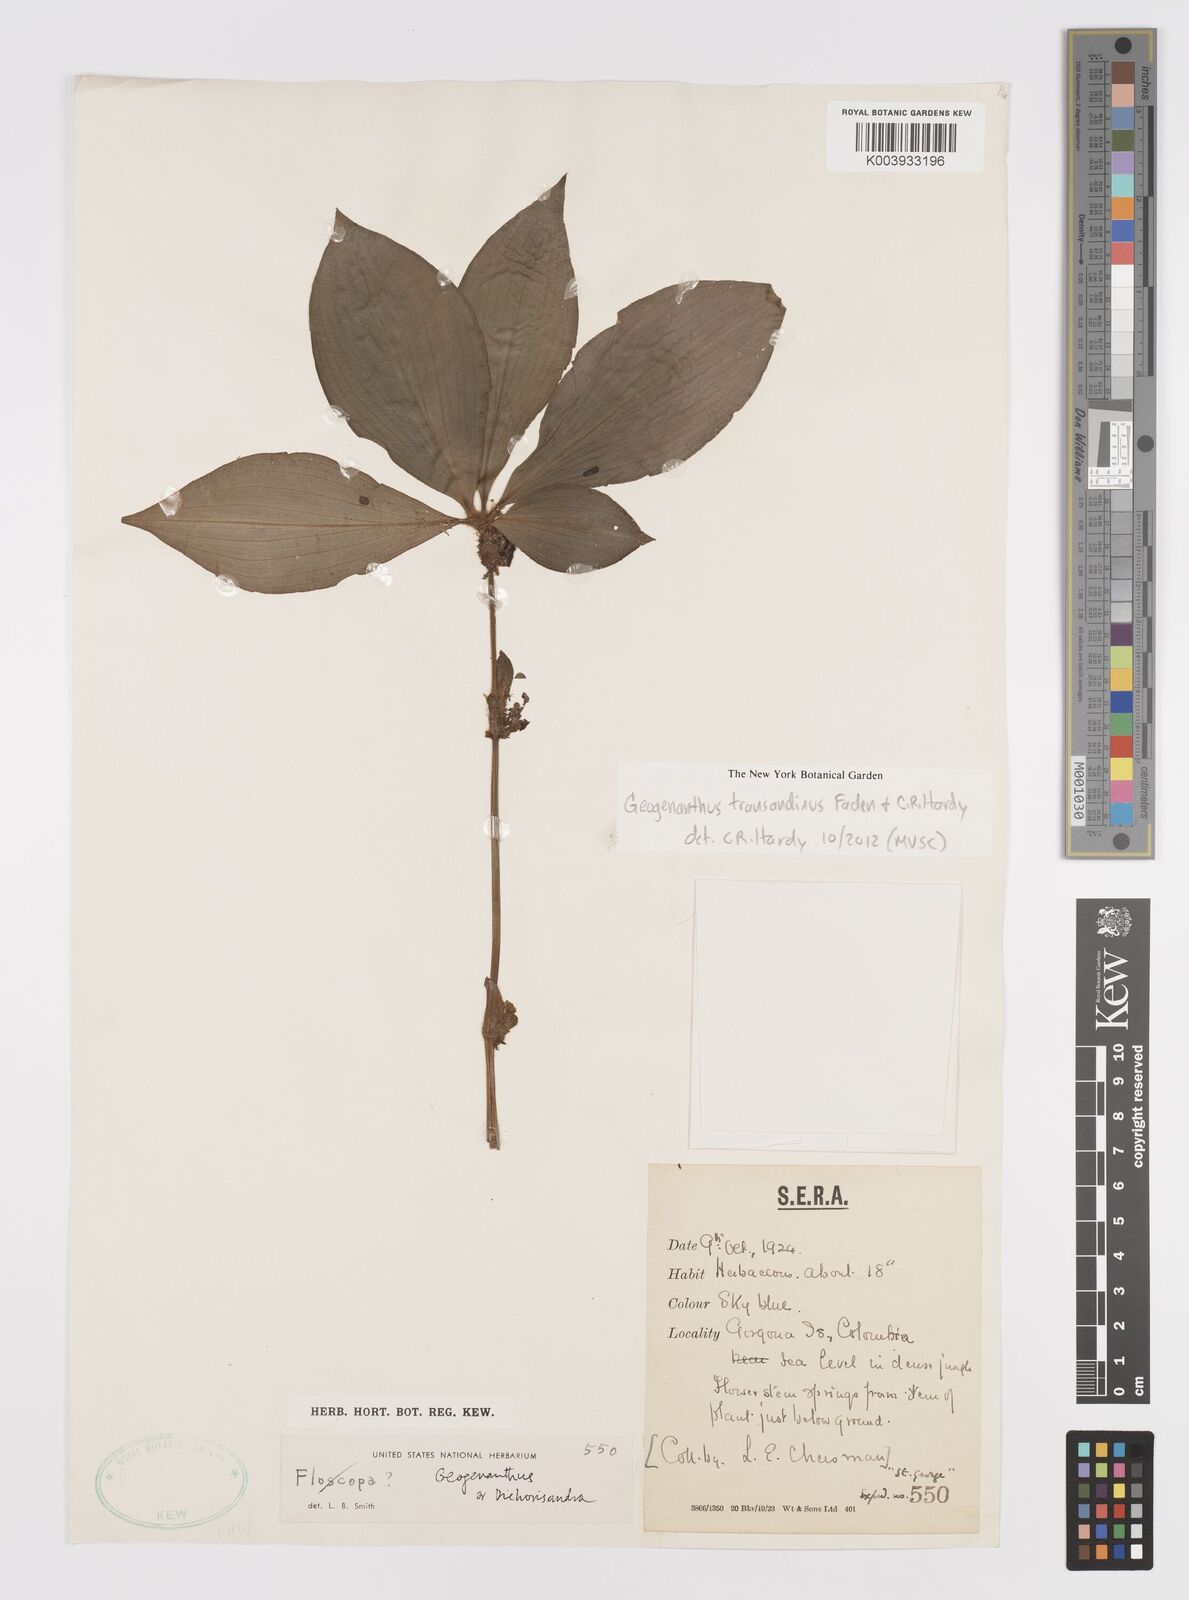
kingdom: Plantae
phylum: Tracheophyta
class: Liliopsida
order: Commelinales
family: Commelinaceae
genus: Geogenanthus
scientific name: Geogenanthus
